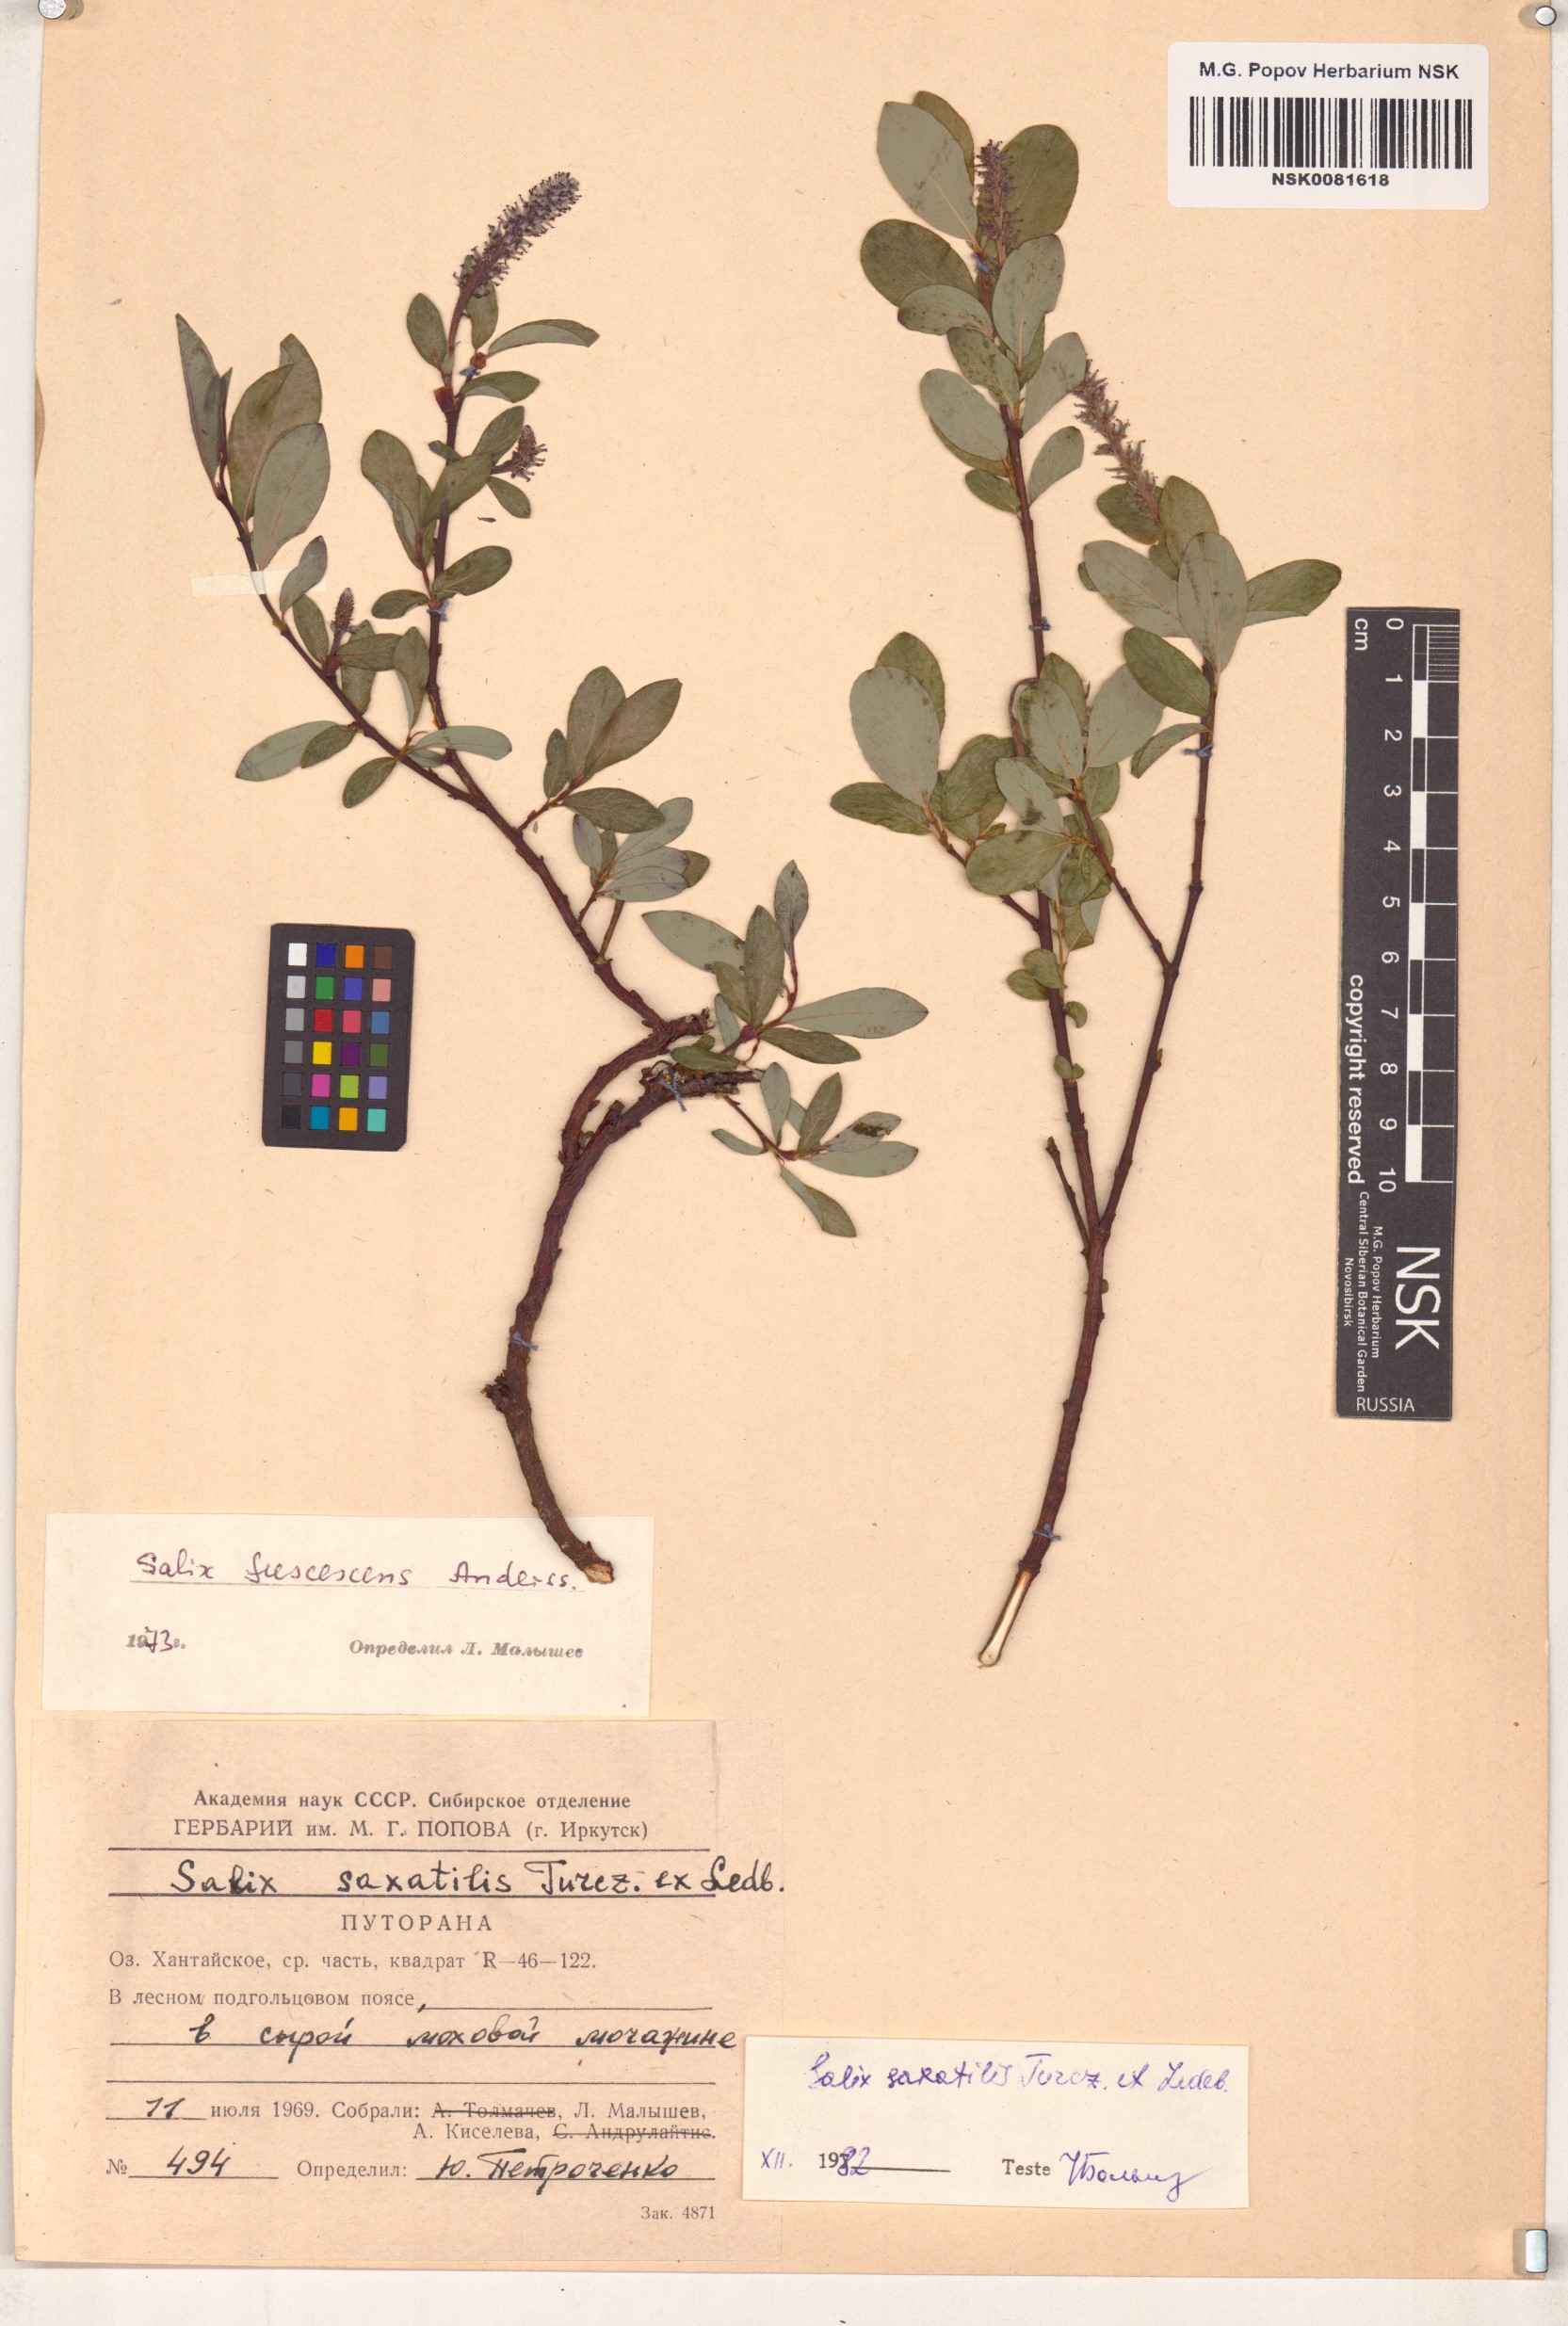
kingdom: Plantae
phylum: Tracheophyta
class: Magnoliopsida
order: Malpighiales
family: Salicaceae
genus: Salix
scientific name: Salix saxatilis
